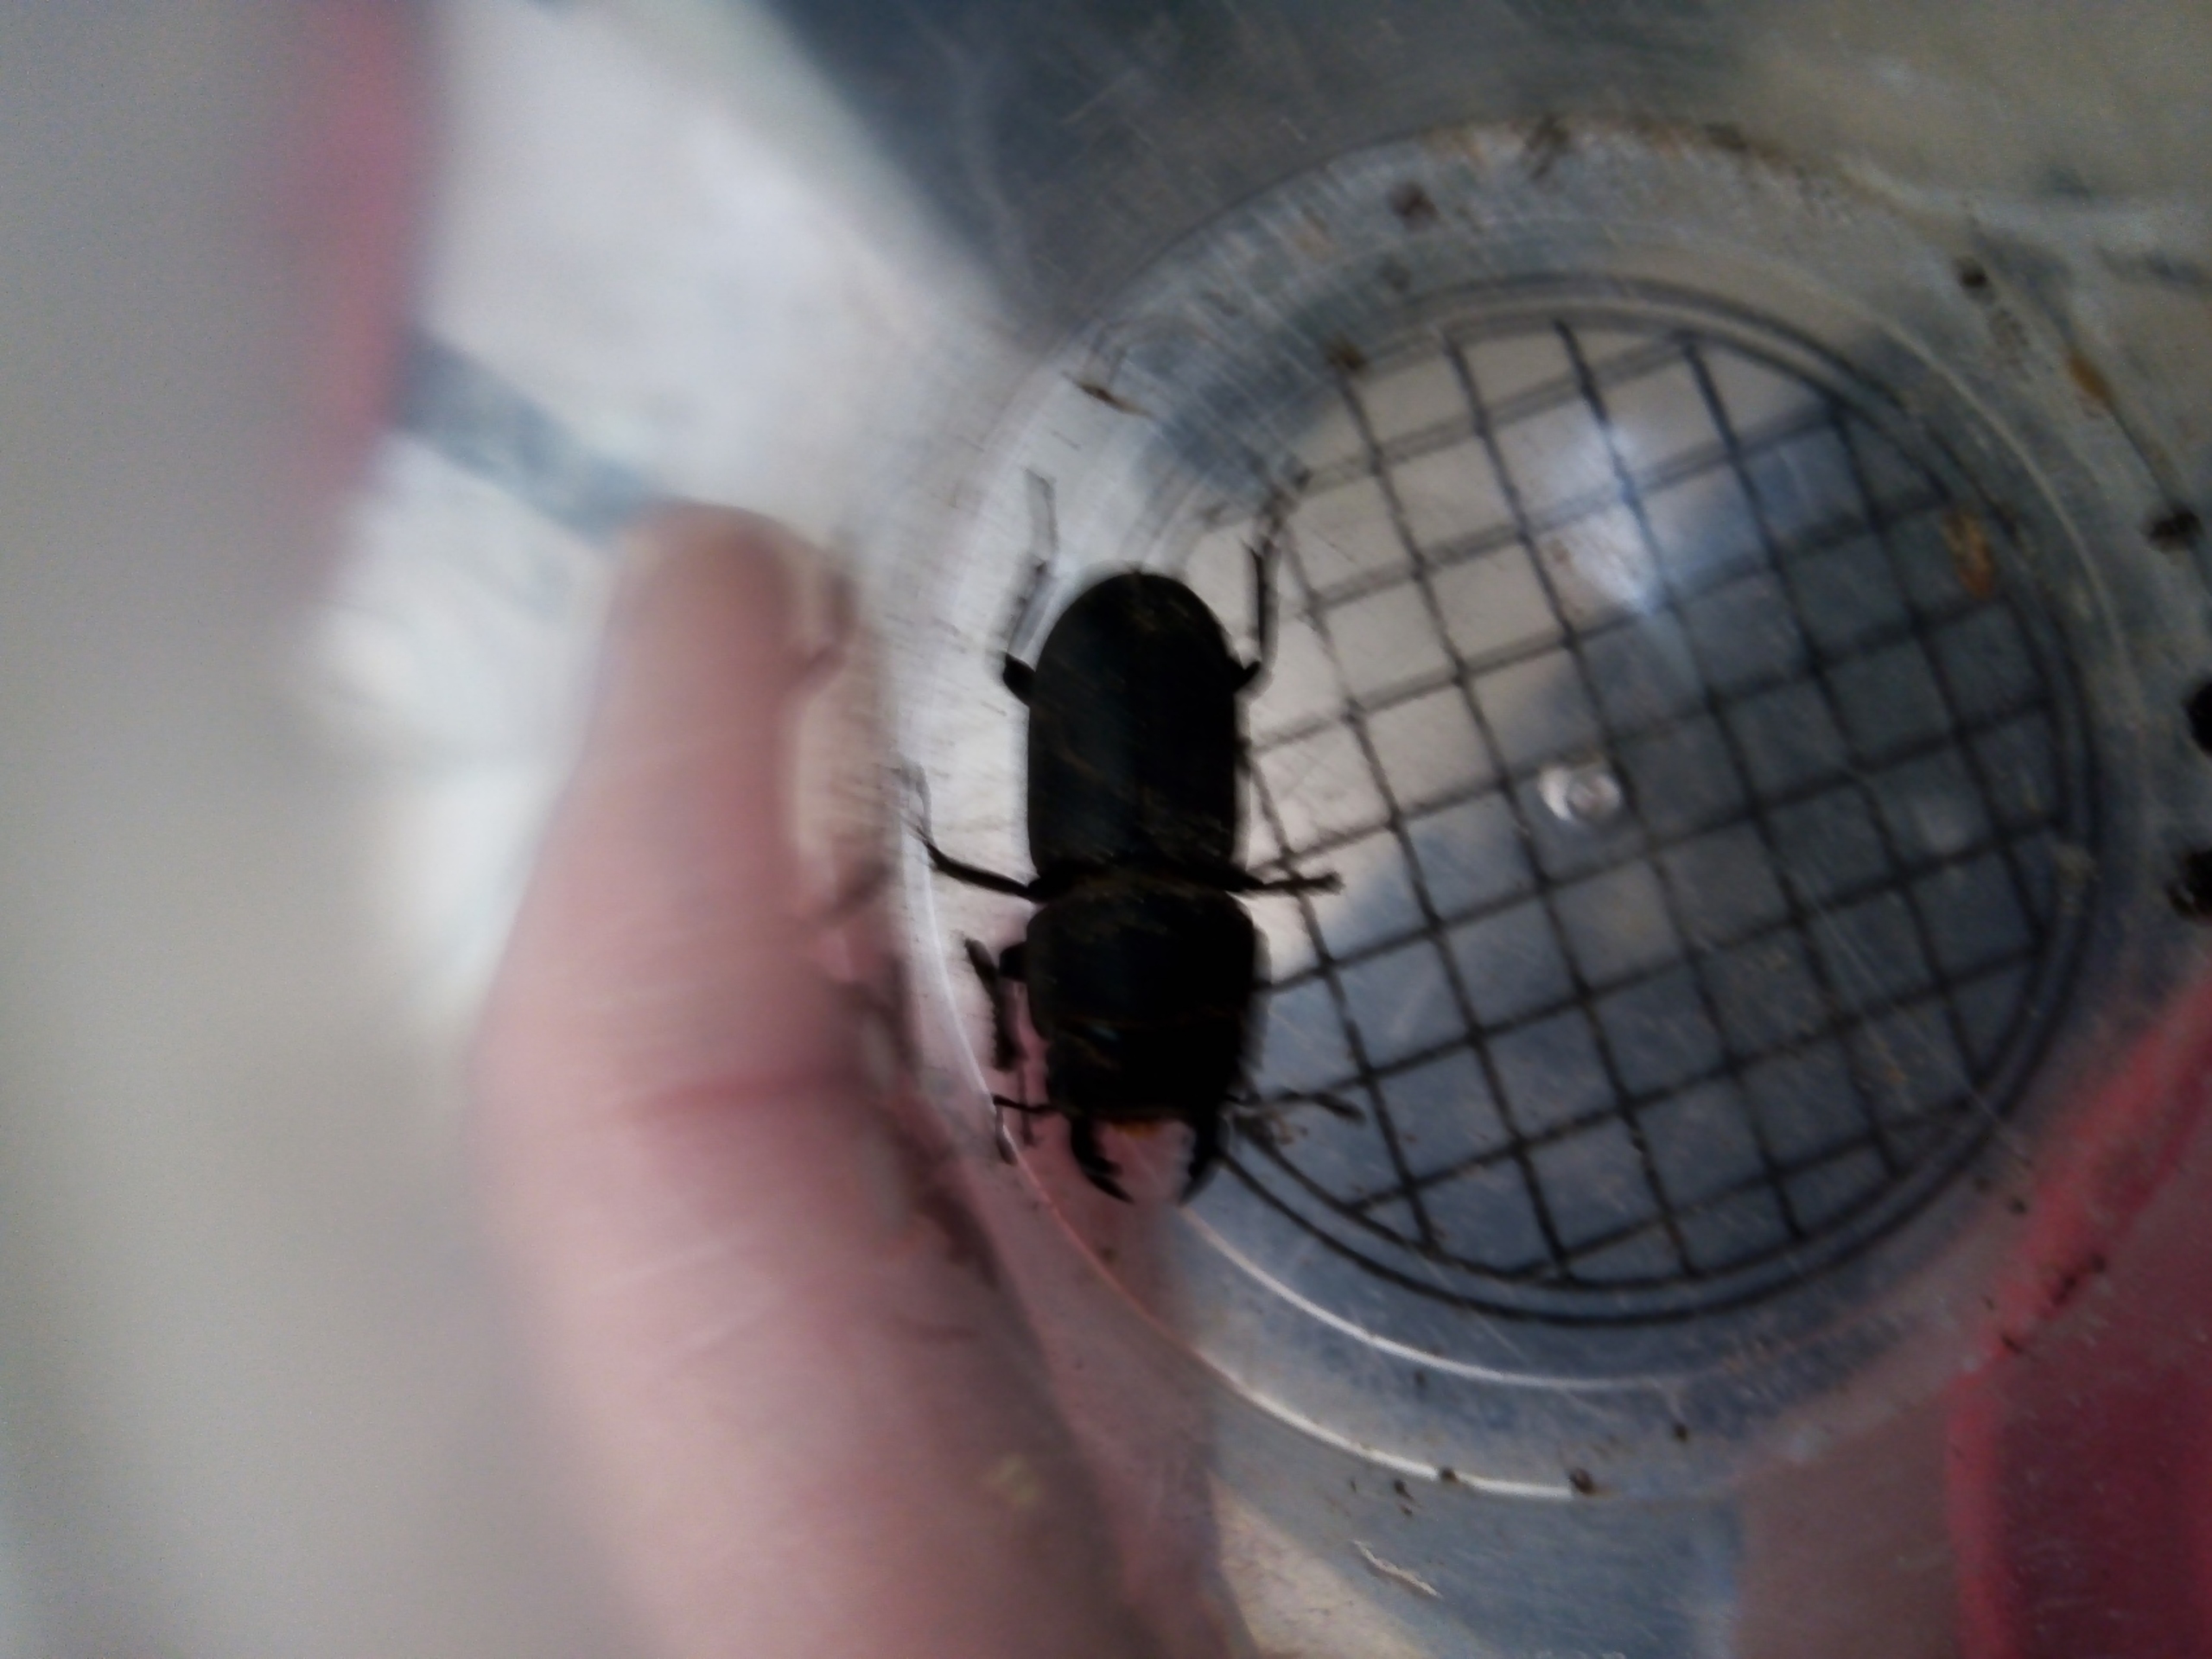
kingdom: Animalia
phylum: Arthropoda
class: Insecta
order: Coleoptera
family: Lucanidae
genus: Dorcus
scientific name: Dorcus parallelipipedus
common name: Bøghjort
